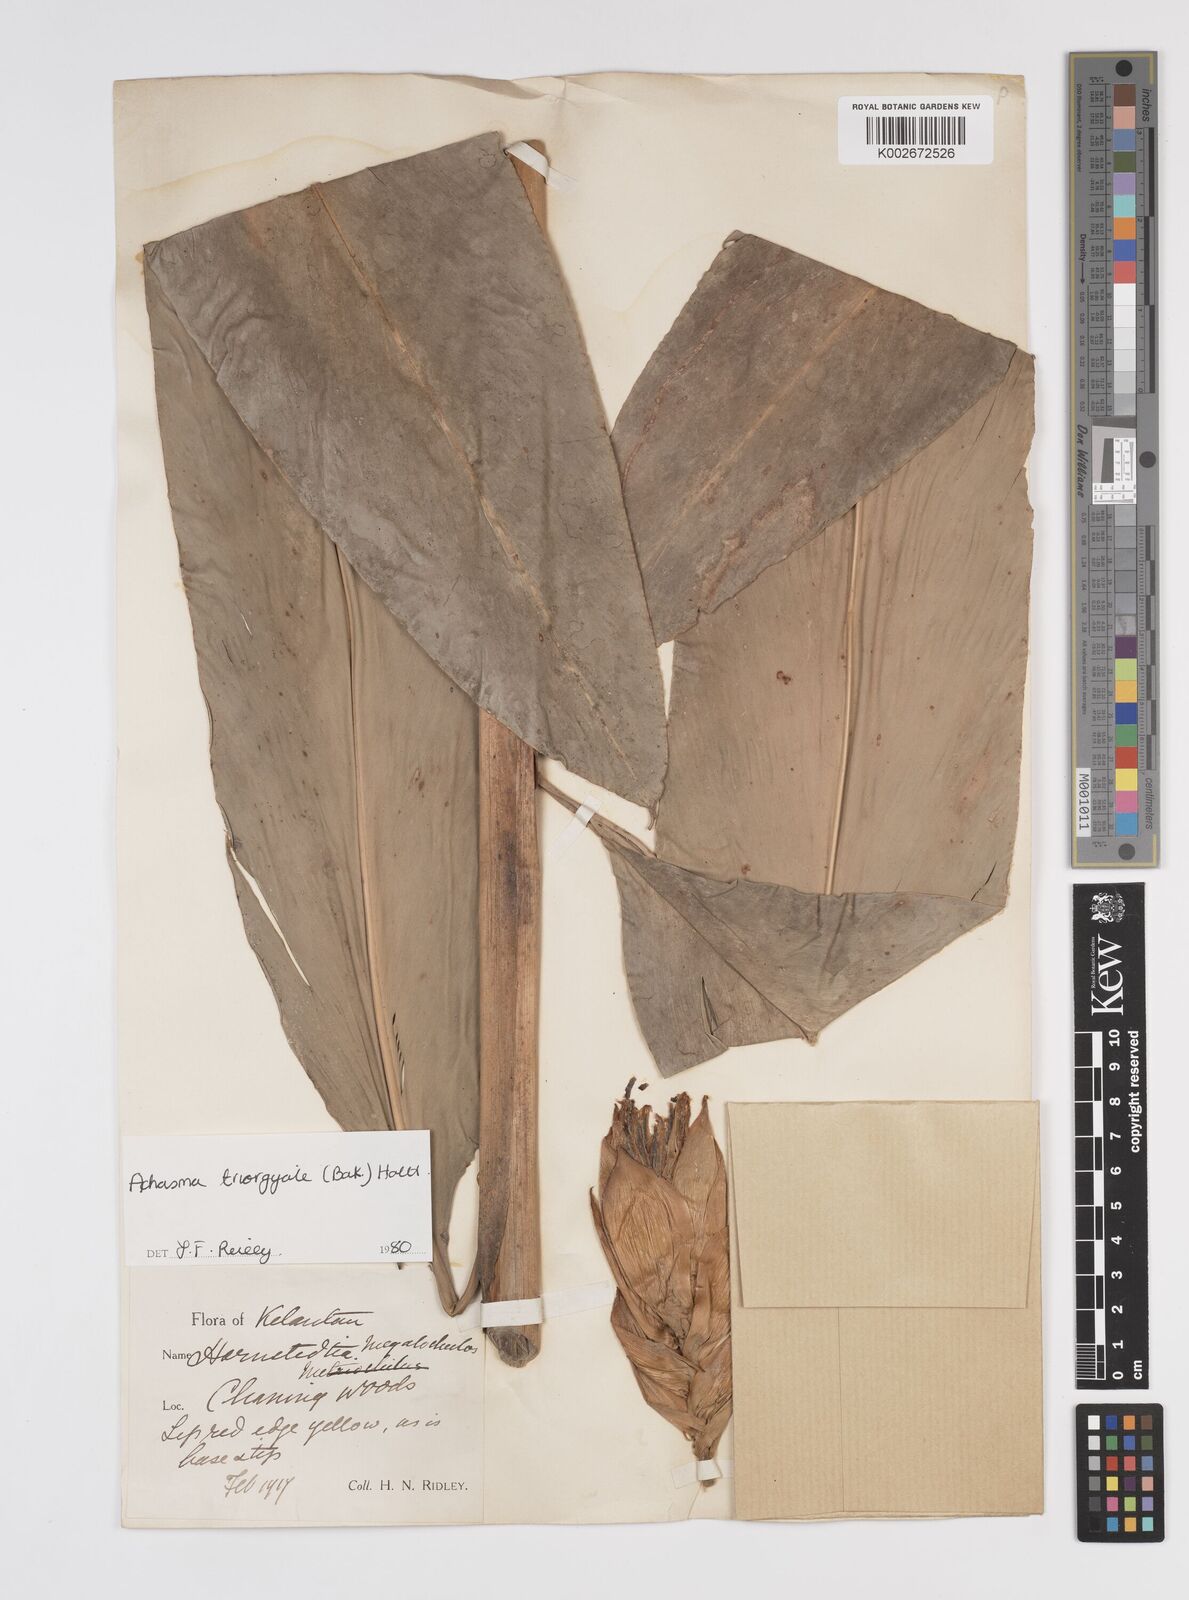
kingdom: Plantae
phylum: Tracheophyta
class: Liliopsida
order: Zingiberales
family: Zingiberaceae
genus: Etlingera
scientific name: Etlingera triorgyalis
